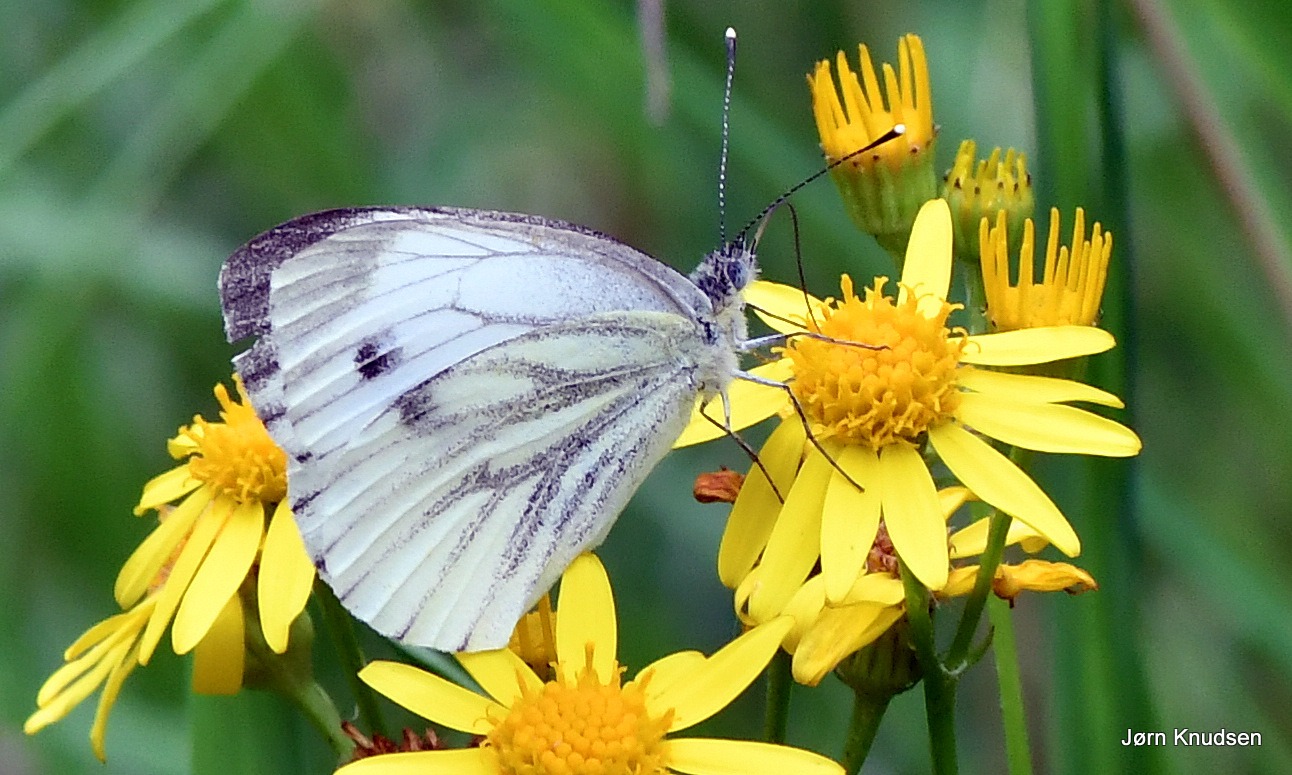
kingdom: Animalia
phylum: Arthropoda
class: Insecta
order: Lepidoptera
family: Pieridae
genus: Pieris
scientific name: Pieris napi
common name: Grønåret kålsommerfugl
